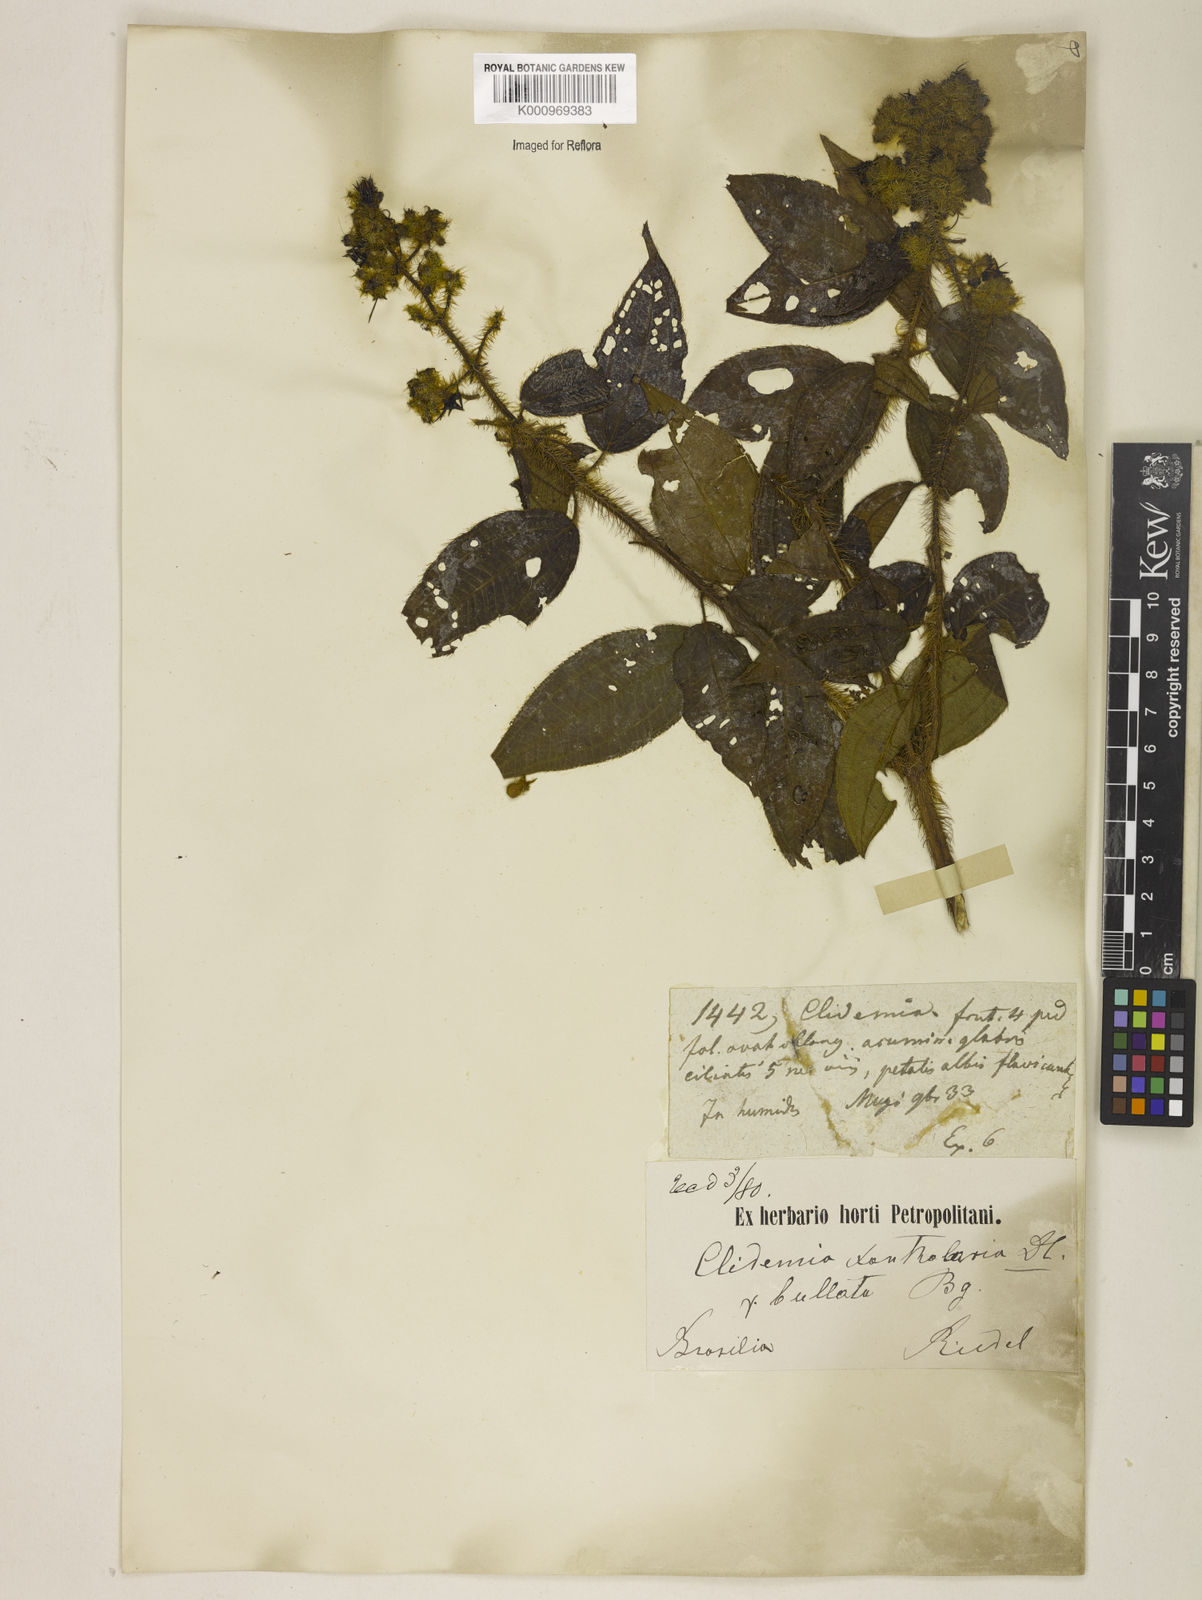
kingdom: Plantae
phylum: Tracheophyta
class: Magnoliopsida
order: Myrtales
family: Melastomataceae
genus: Miconia
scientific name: Miconia xantholasia
